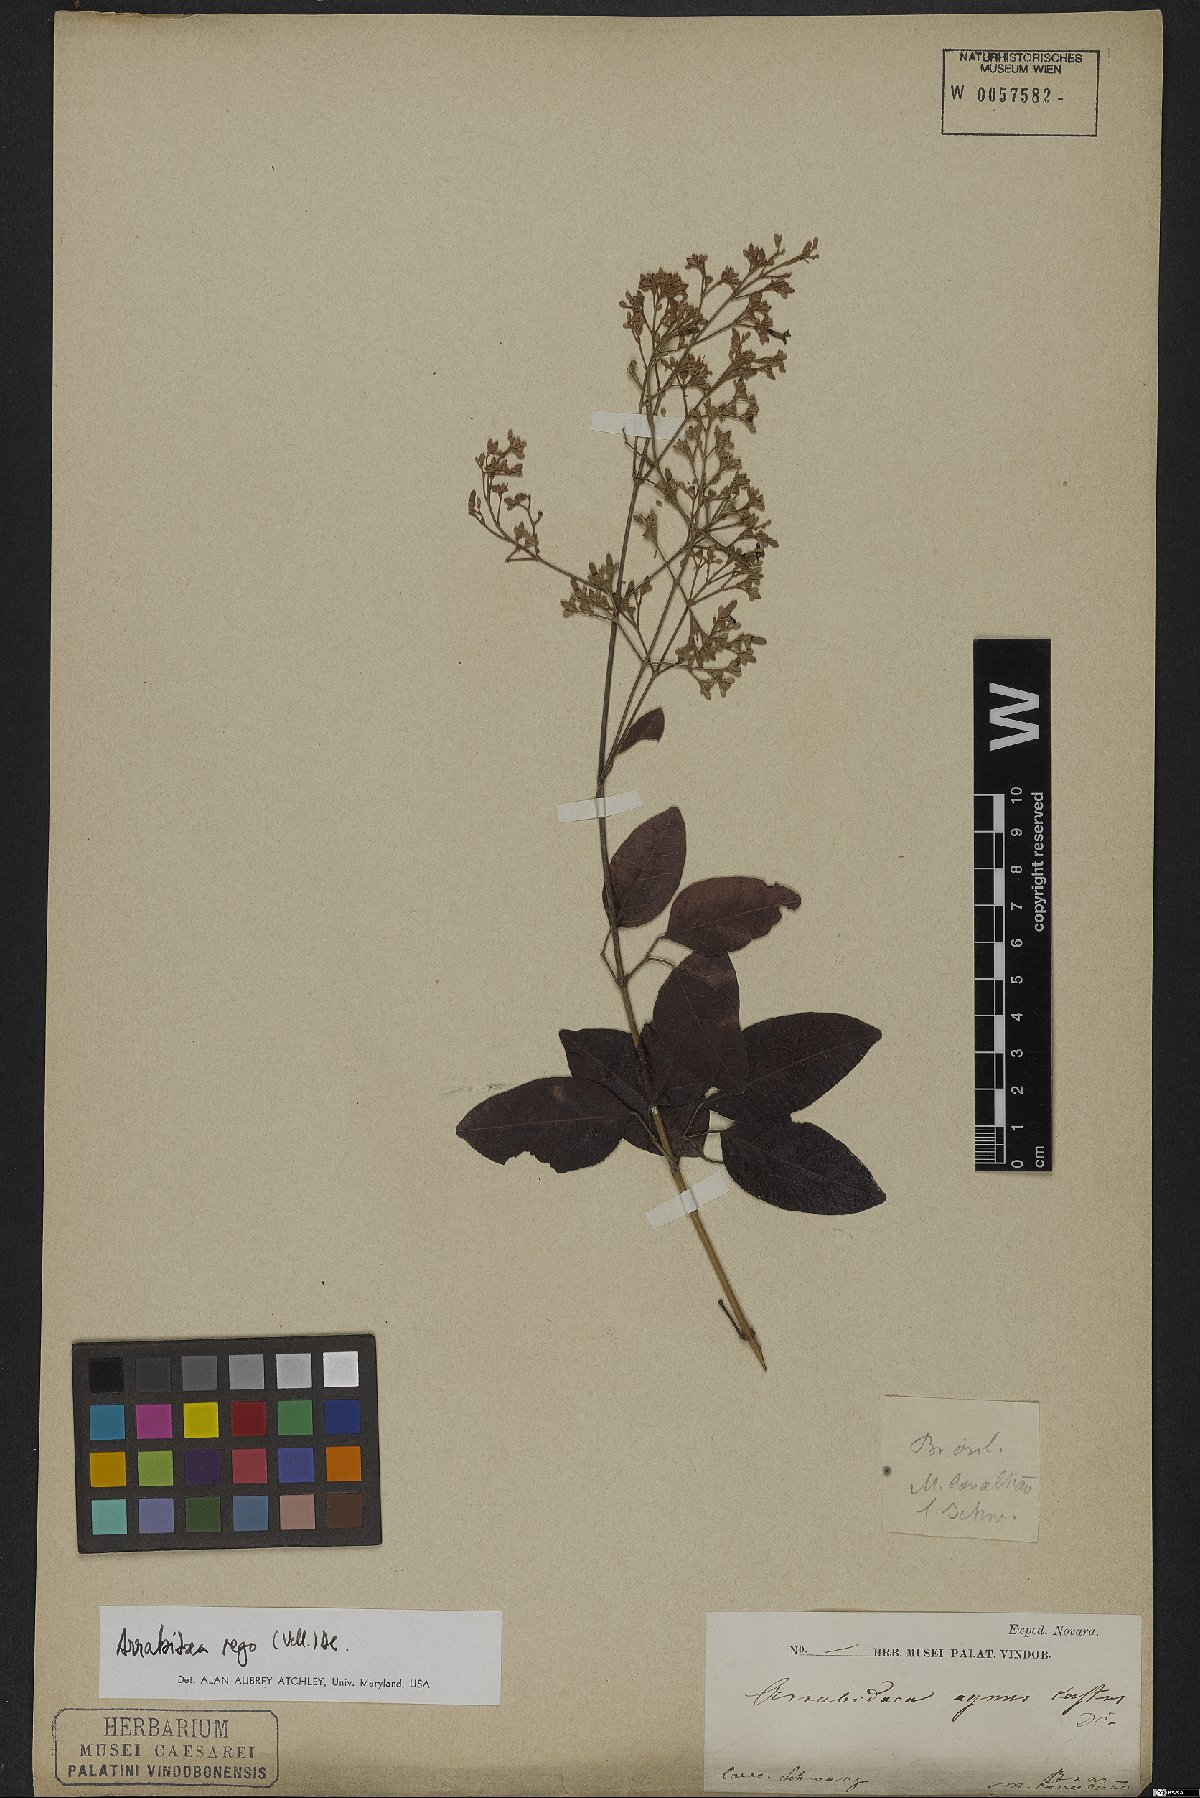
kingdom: Plantae
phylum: Tracheophyta
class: Magnoliopsida
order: Lamiales
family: Bignoniaceae
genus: Fridericia
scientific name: Fridericia rego
